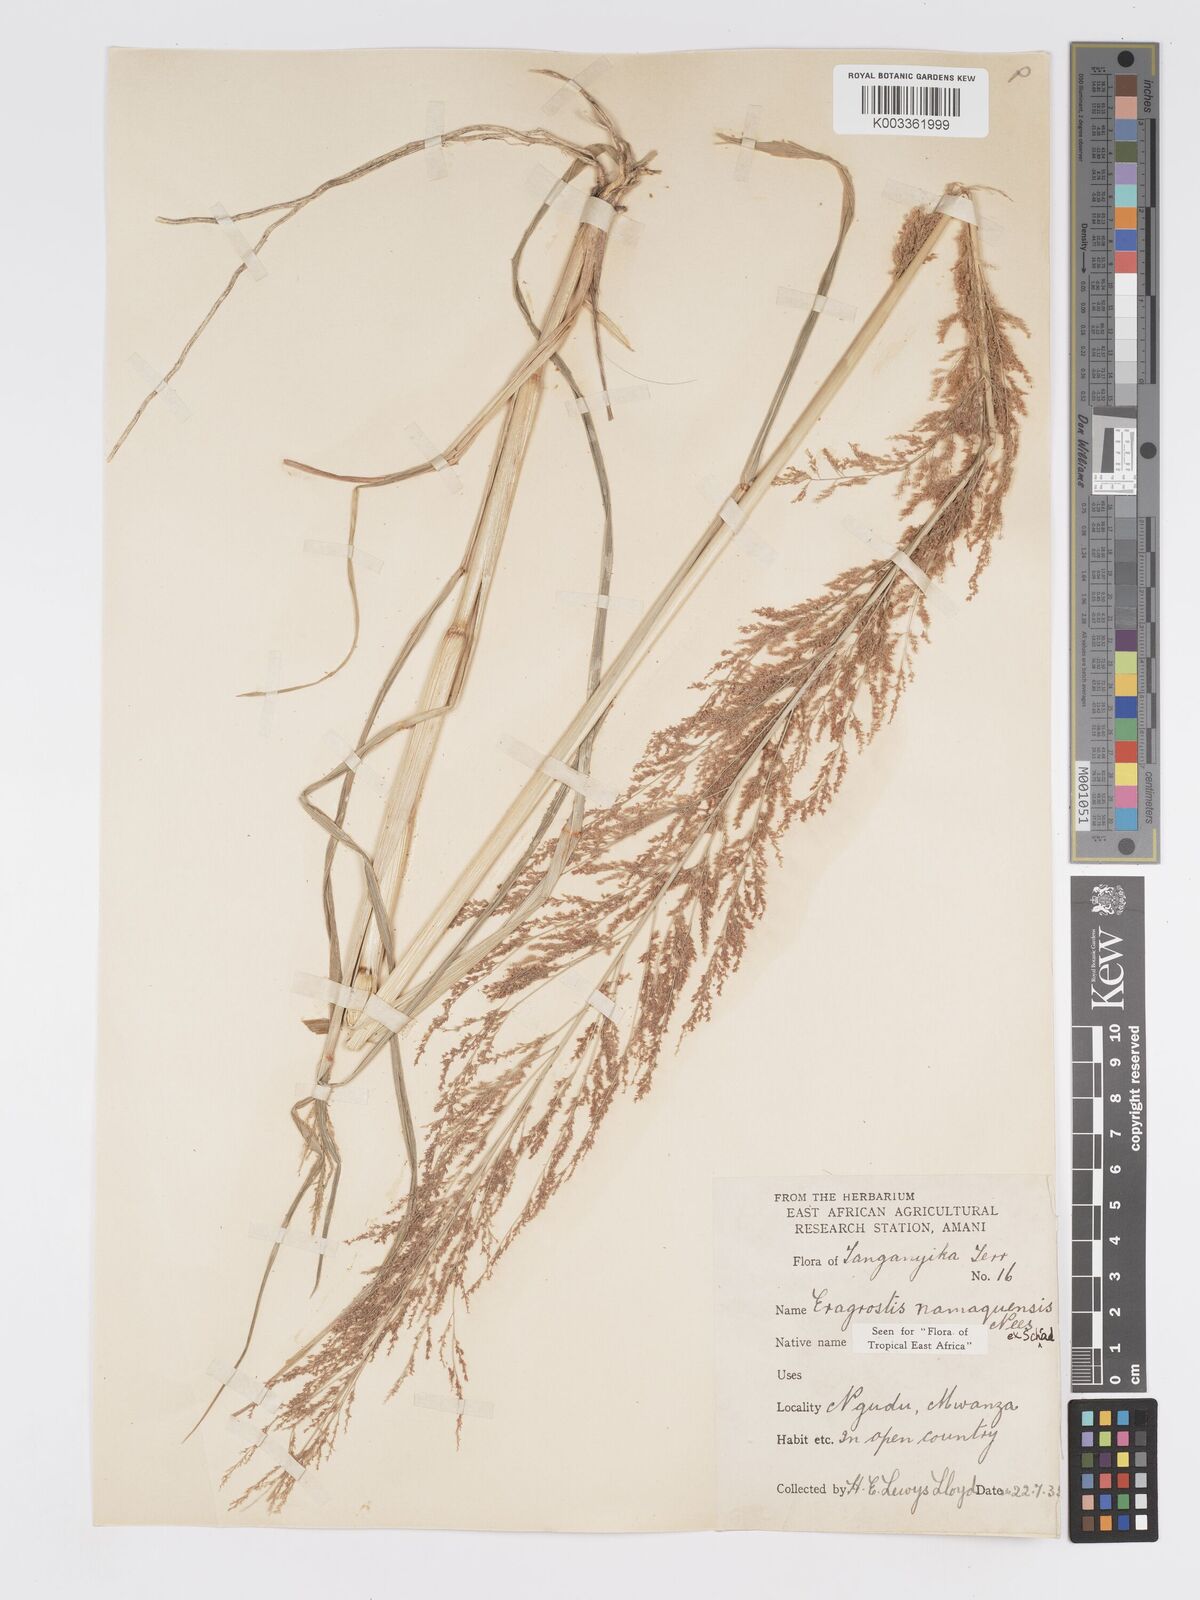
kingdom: Plantae
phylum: Tracheophyta
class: Liliopsida
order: Poales
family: Poaceae
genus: Eragrostis
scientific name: Eragrostis japonica
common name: Pond lovegrass
